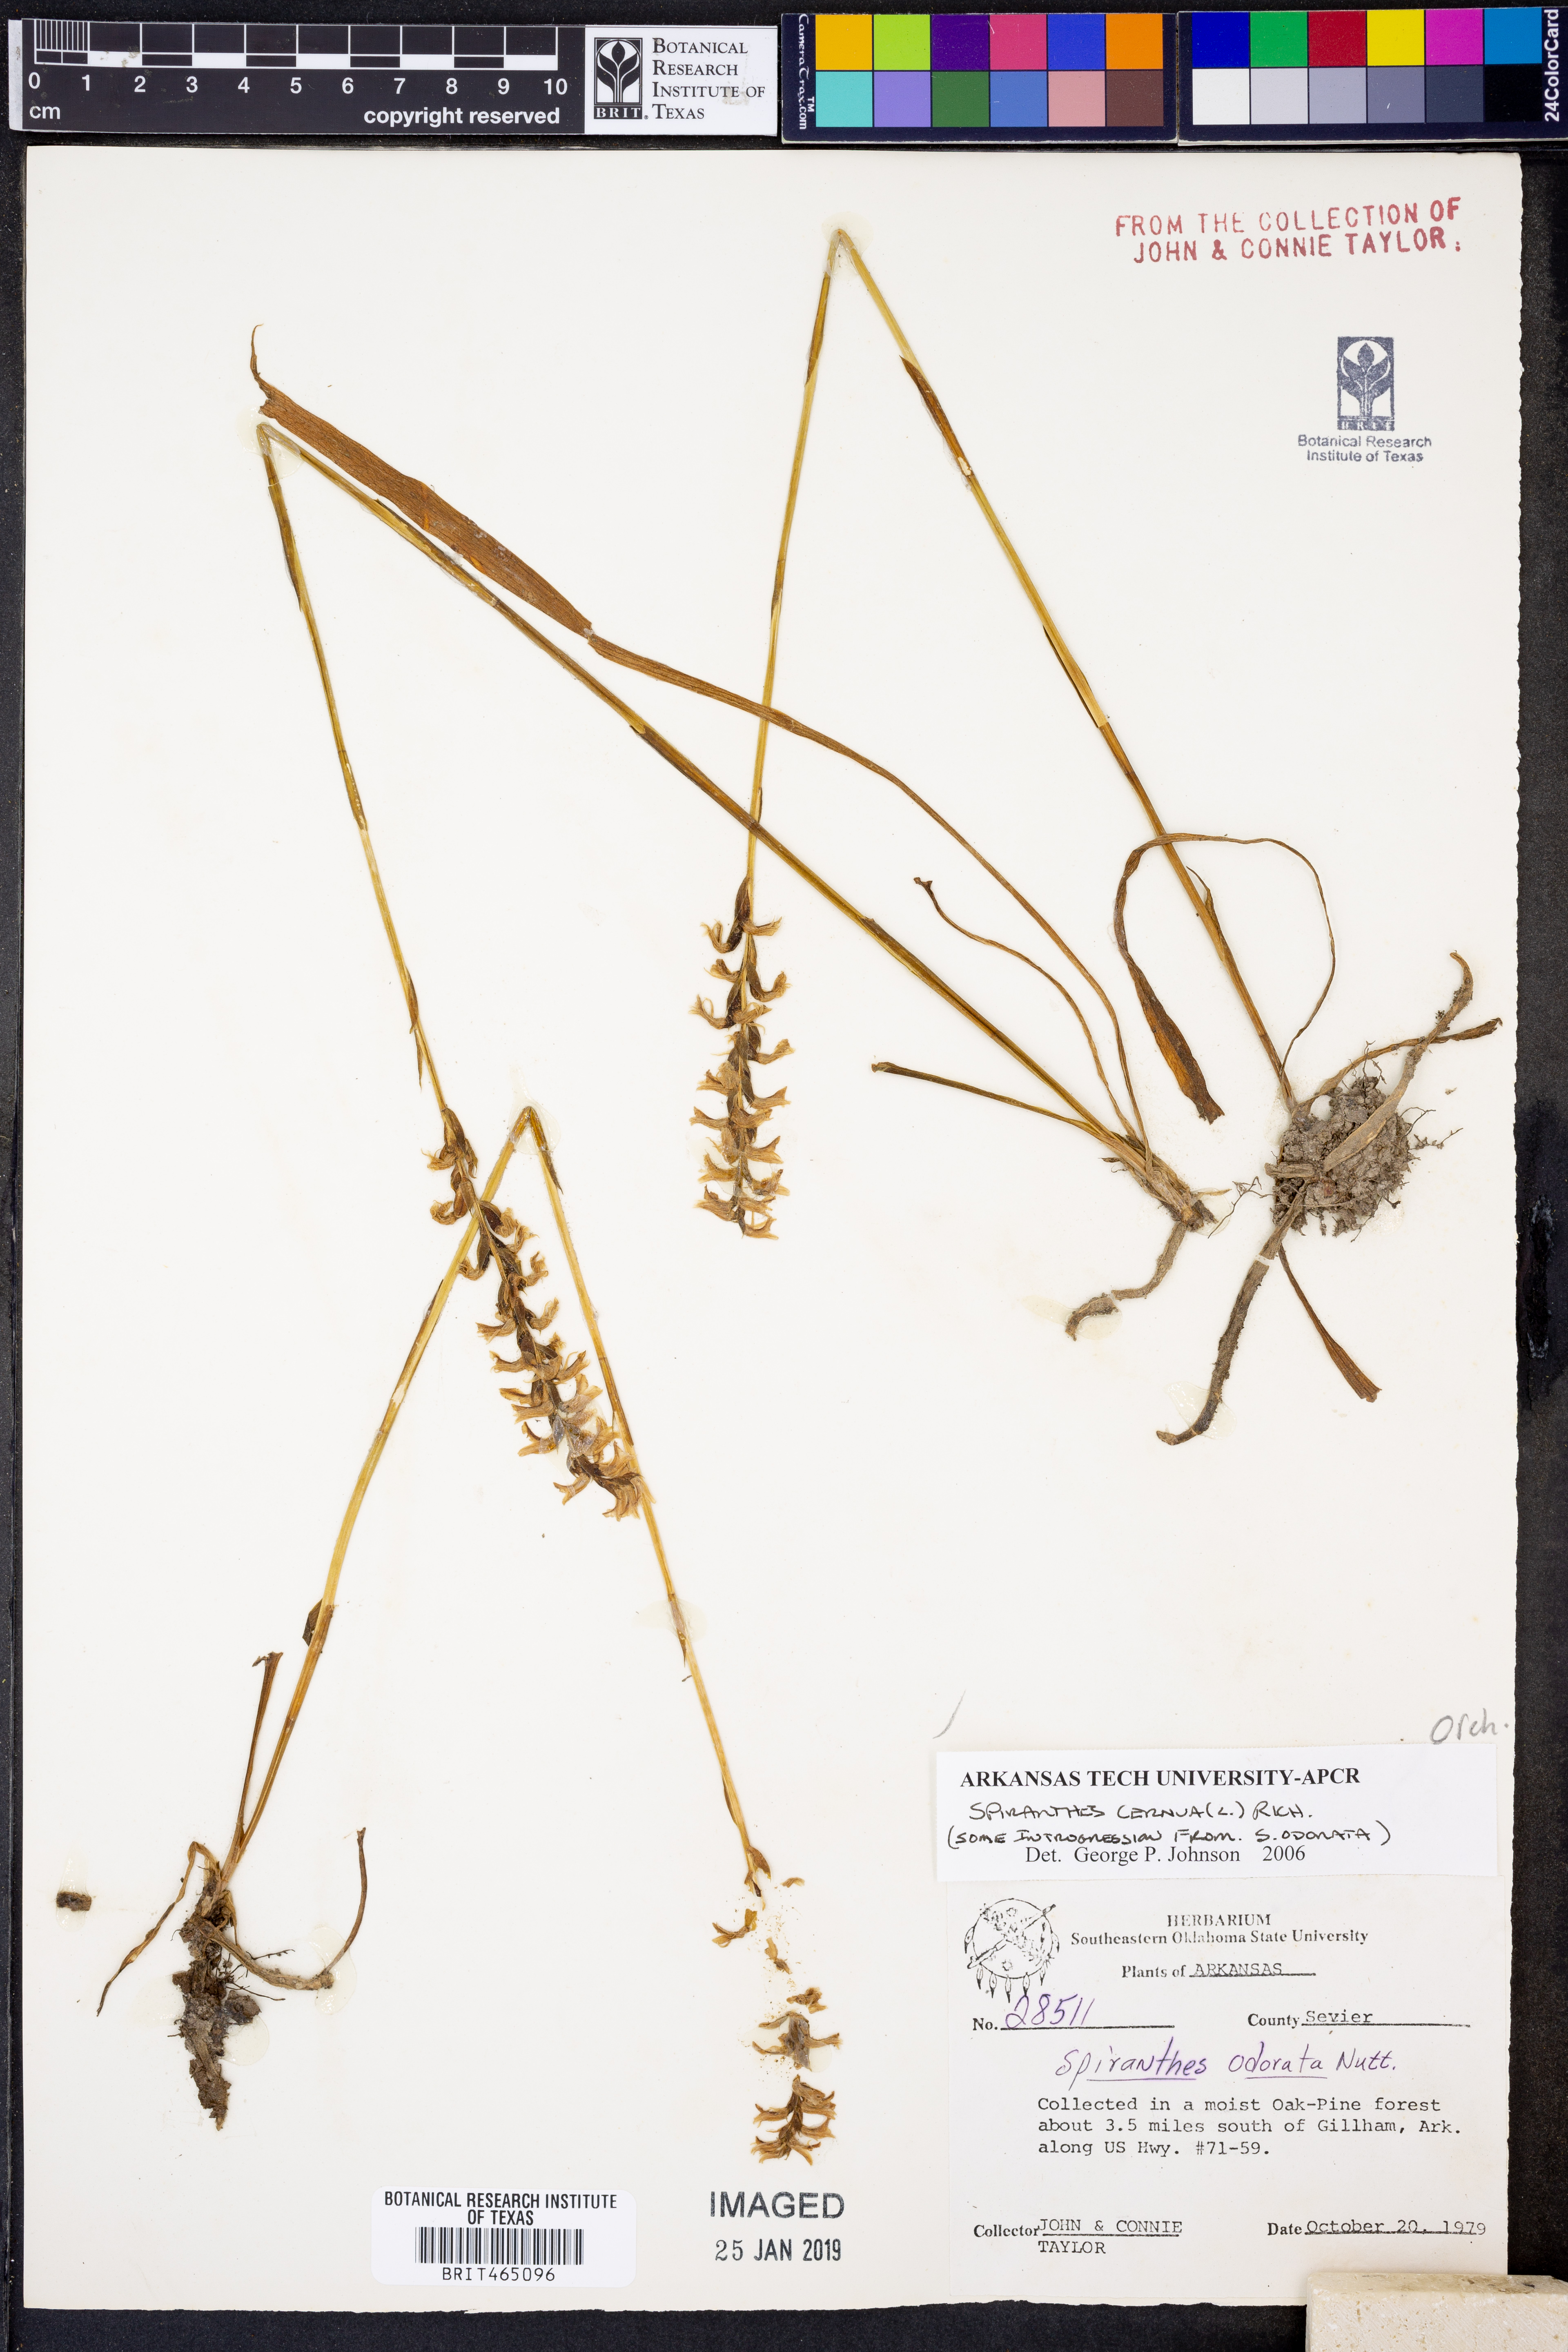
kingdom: Plantae
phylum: Tracheophyta
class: Liliopsida
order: Asparagales
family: Orchidaceae
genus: Spiranthes
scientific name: Spiranthes cernua
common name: Dropping ladies'-tresses
